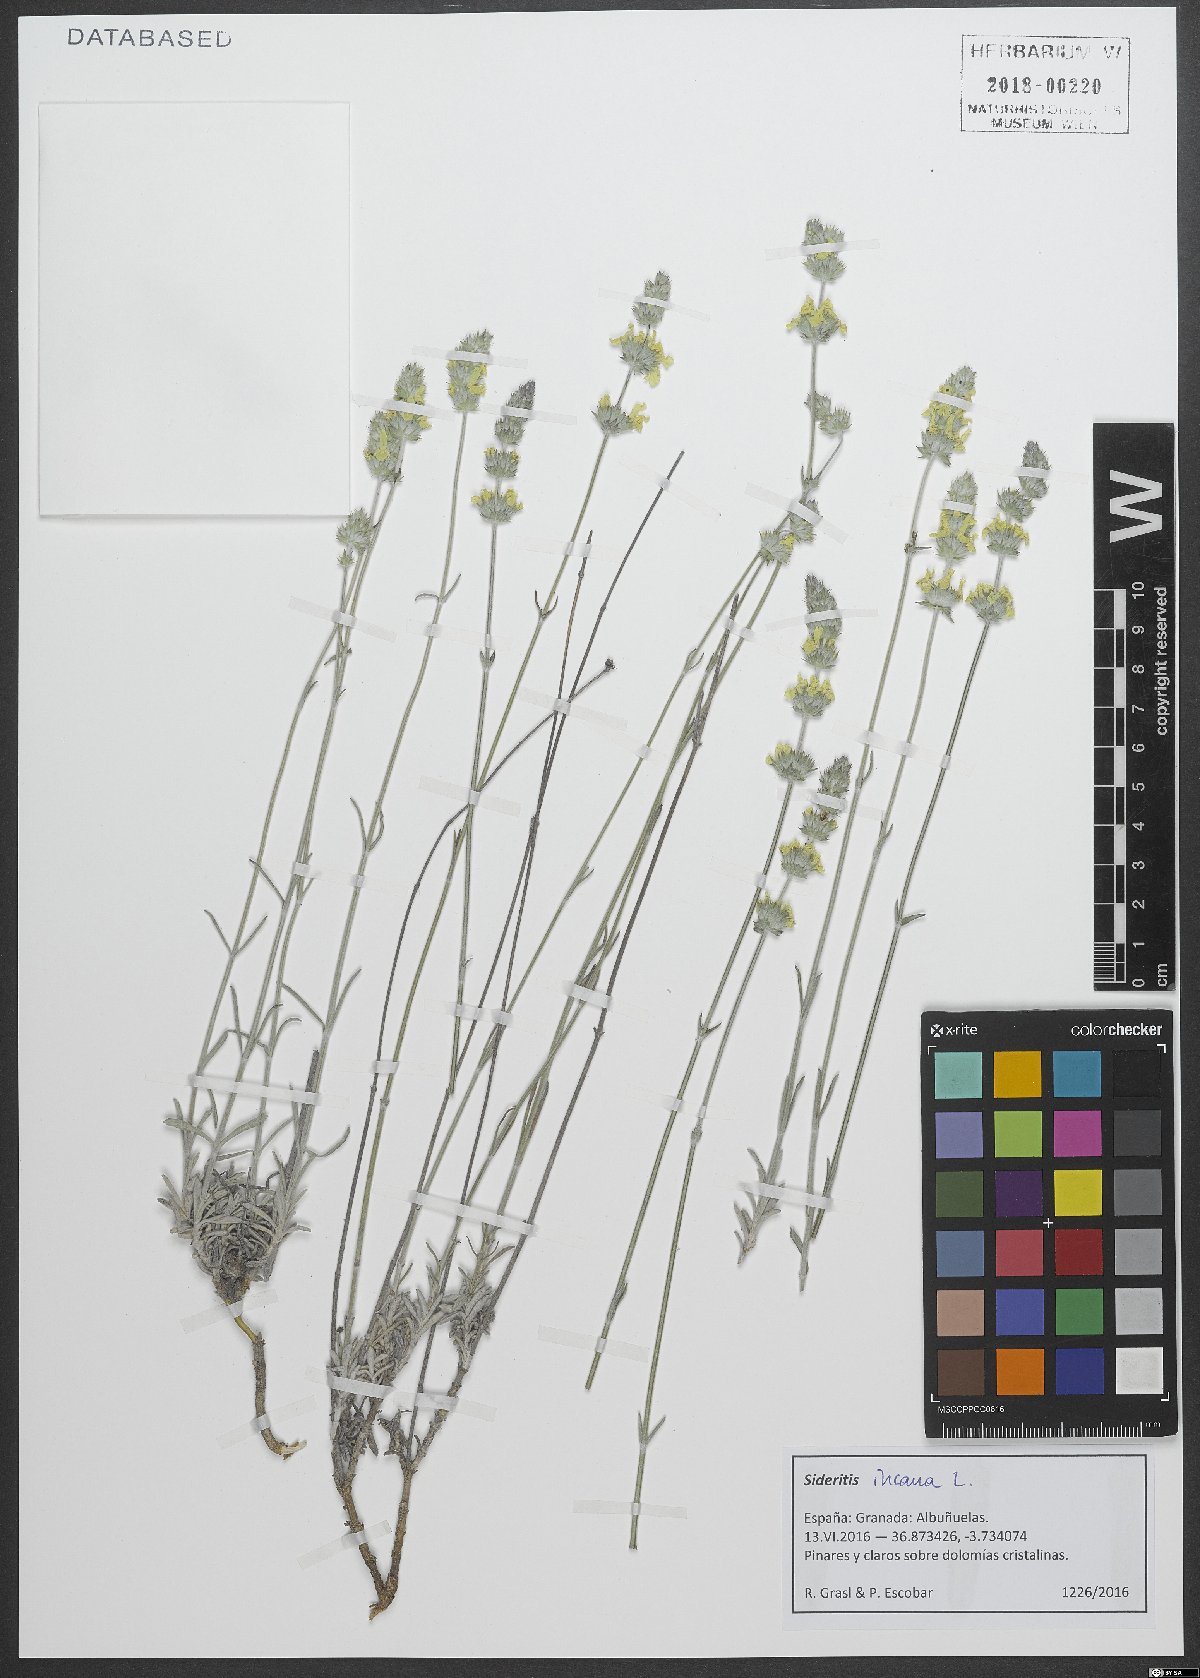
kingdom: Plantae
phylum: Tracheophyta
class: Magnoliopsida
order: Lamiales
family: Lamiaceae
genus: Sideritis
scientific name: Sideritis incana
